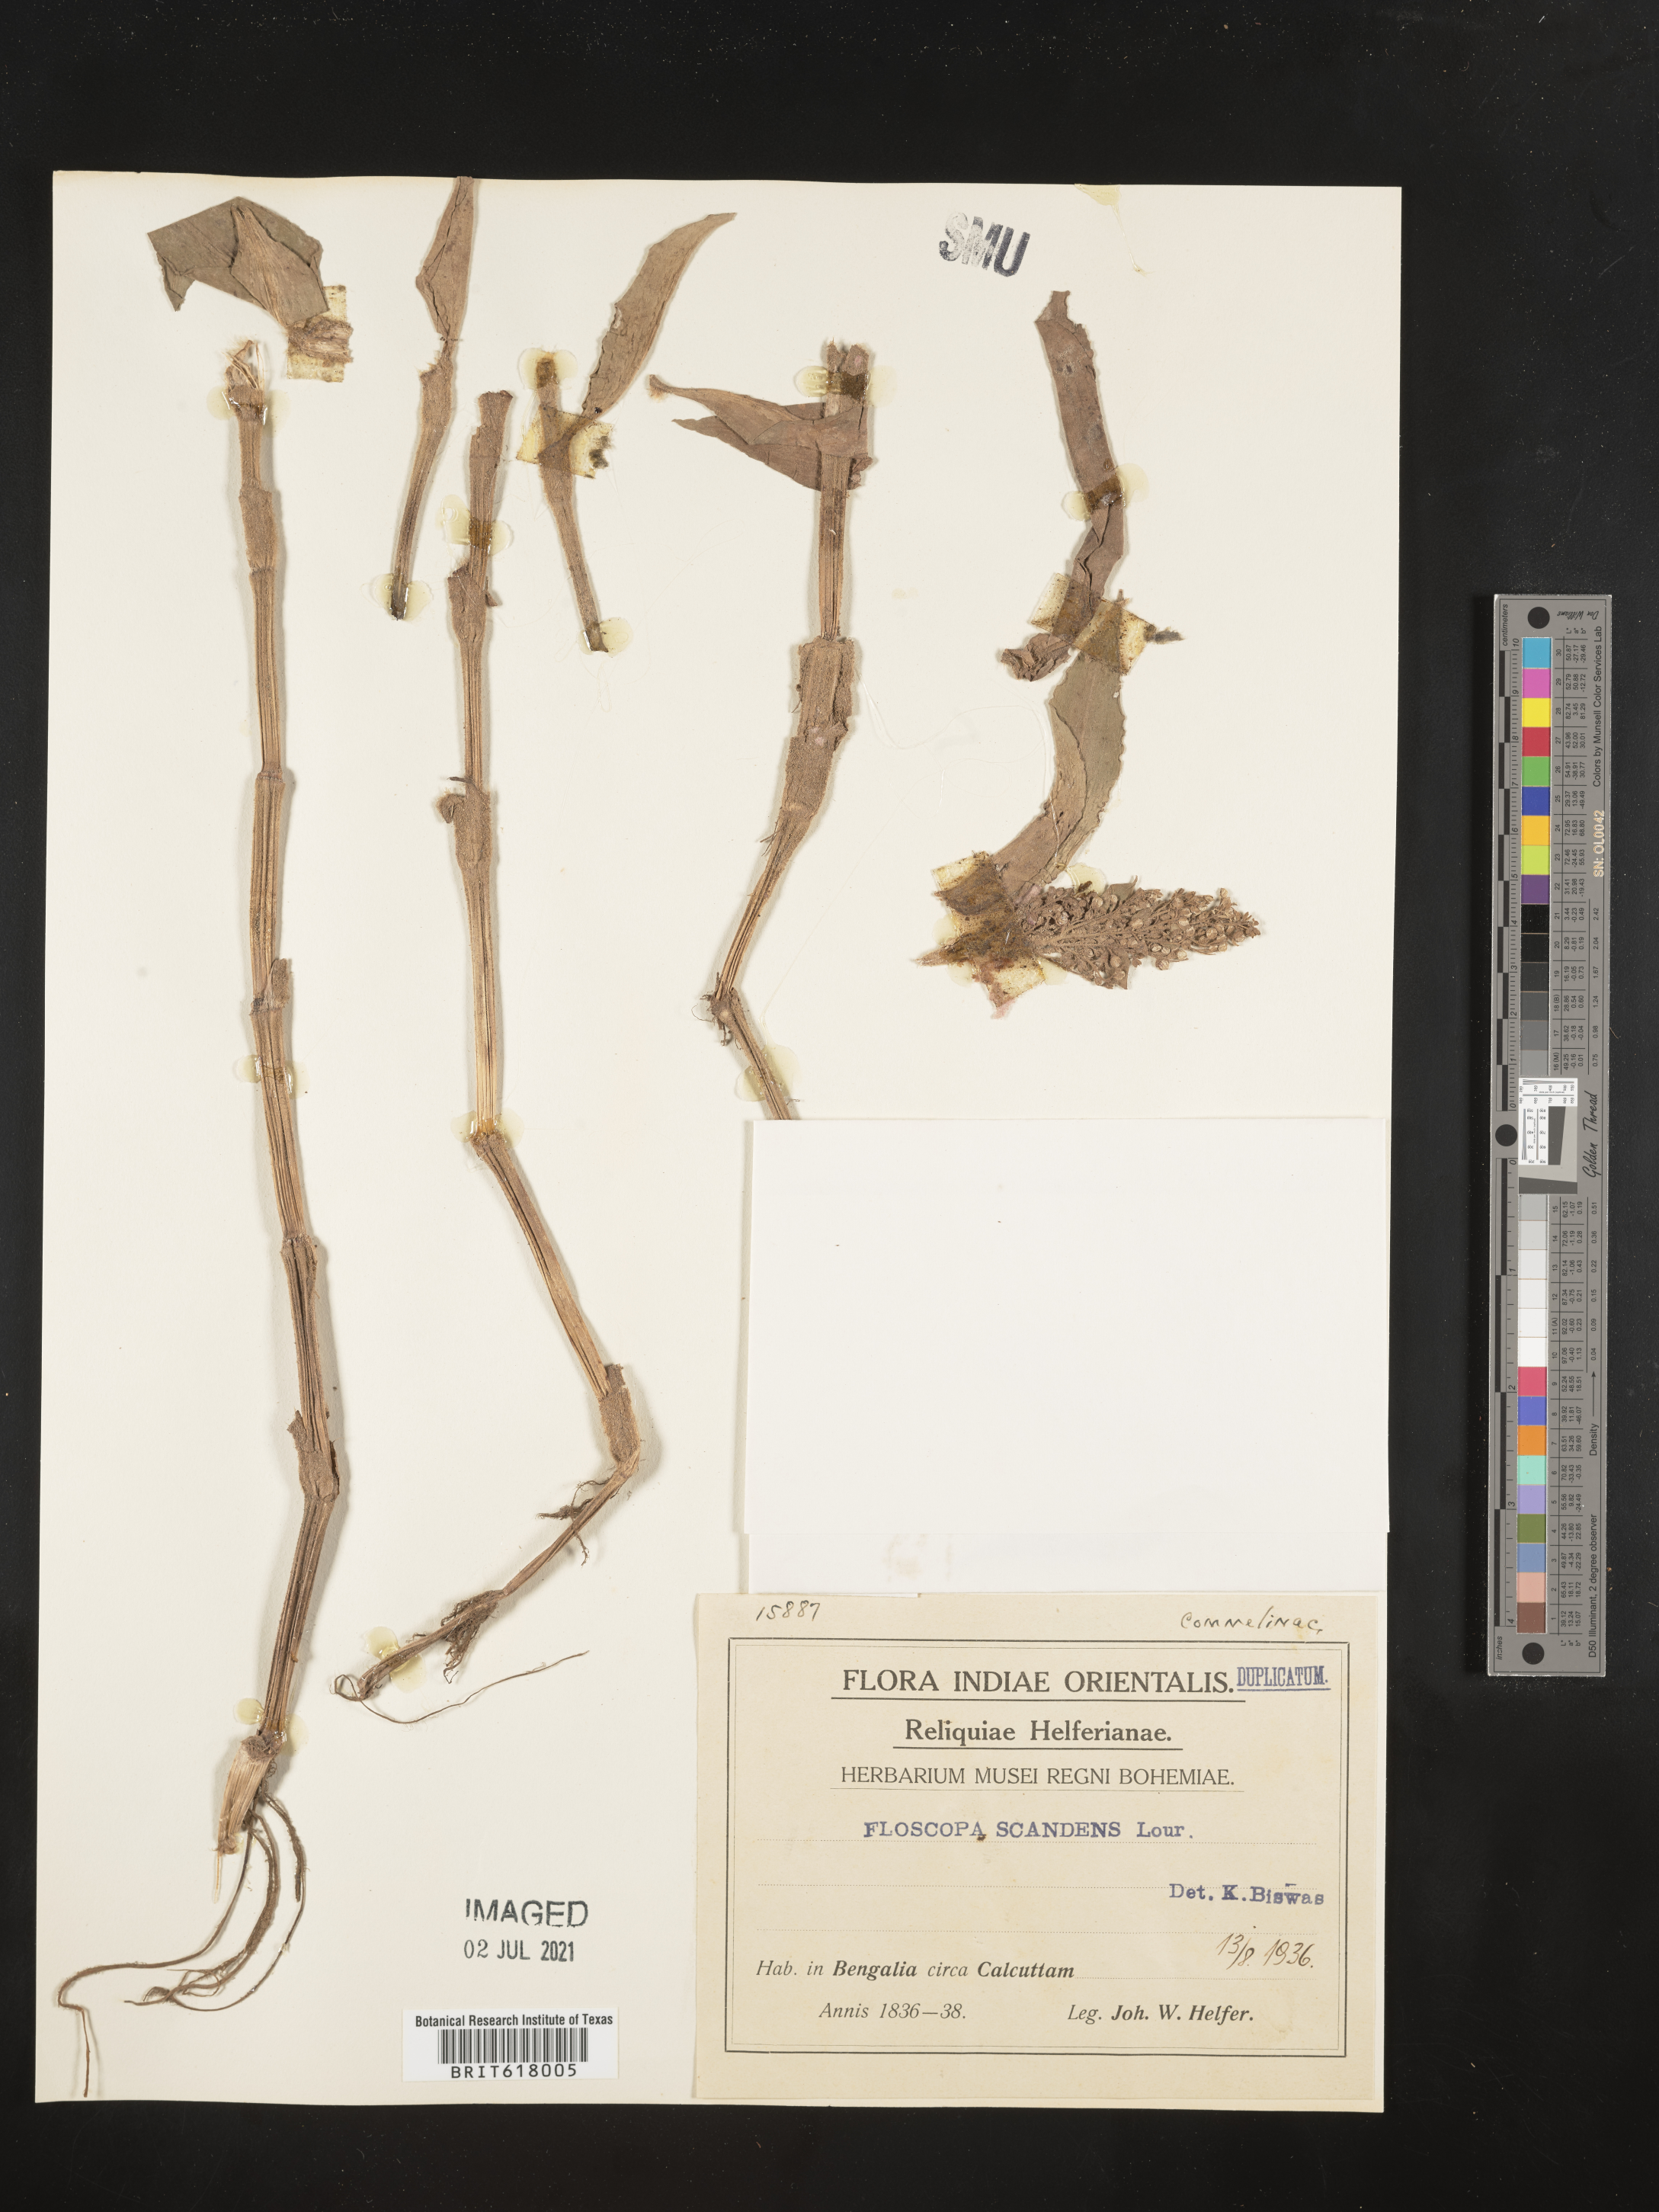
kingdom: Plantae
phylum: Tracheophyta
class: Liliopsida
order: Commelinales
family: Commelinaceae
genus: Floscopa
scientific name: Floscopa scandens
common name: Climbing flower cup
